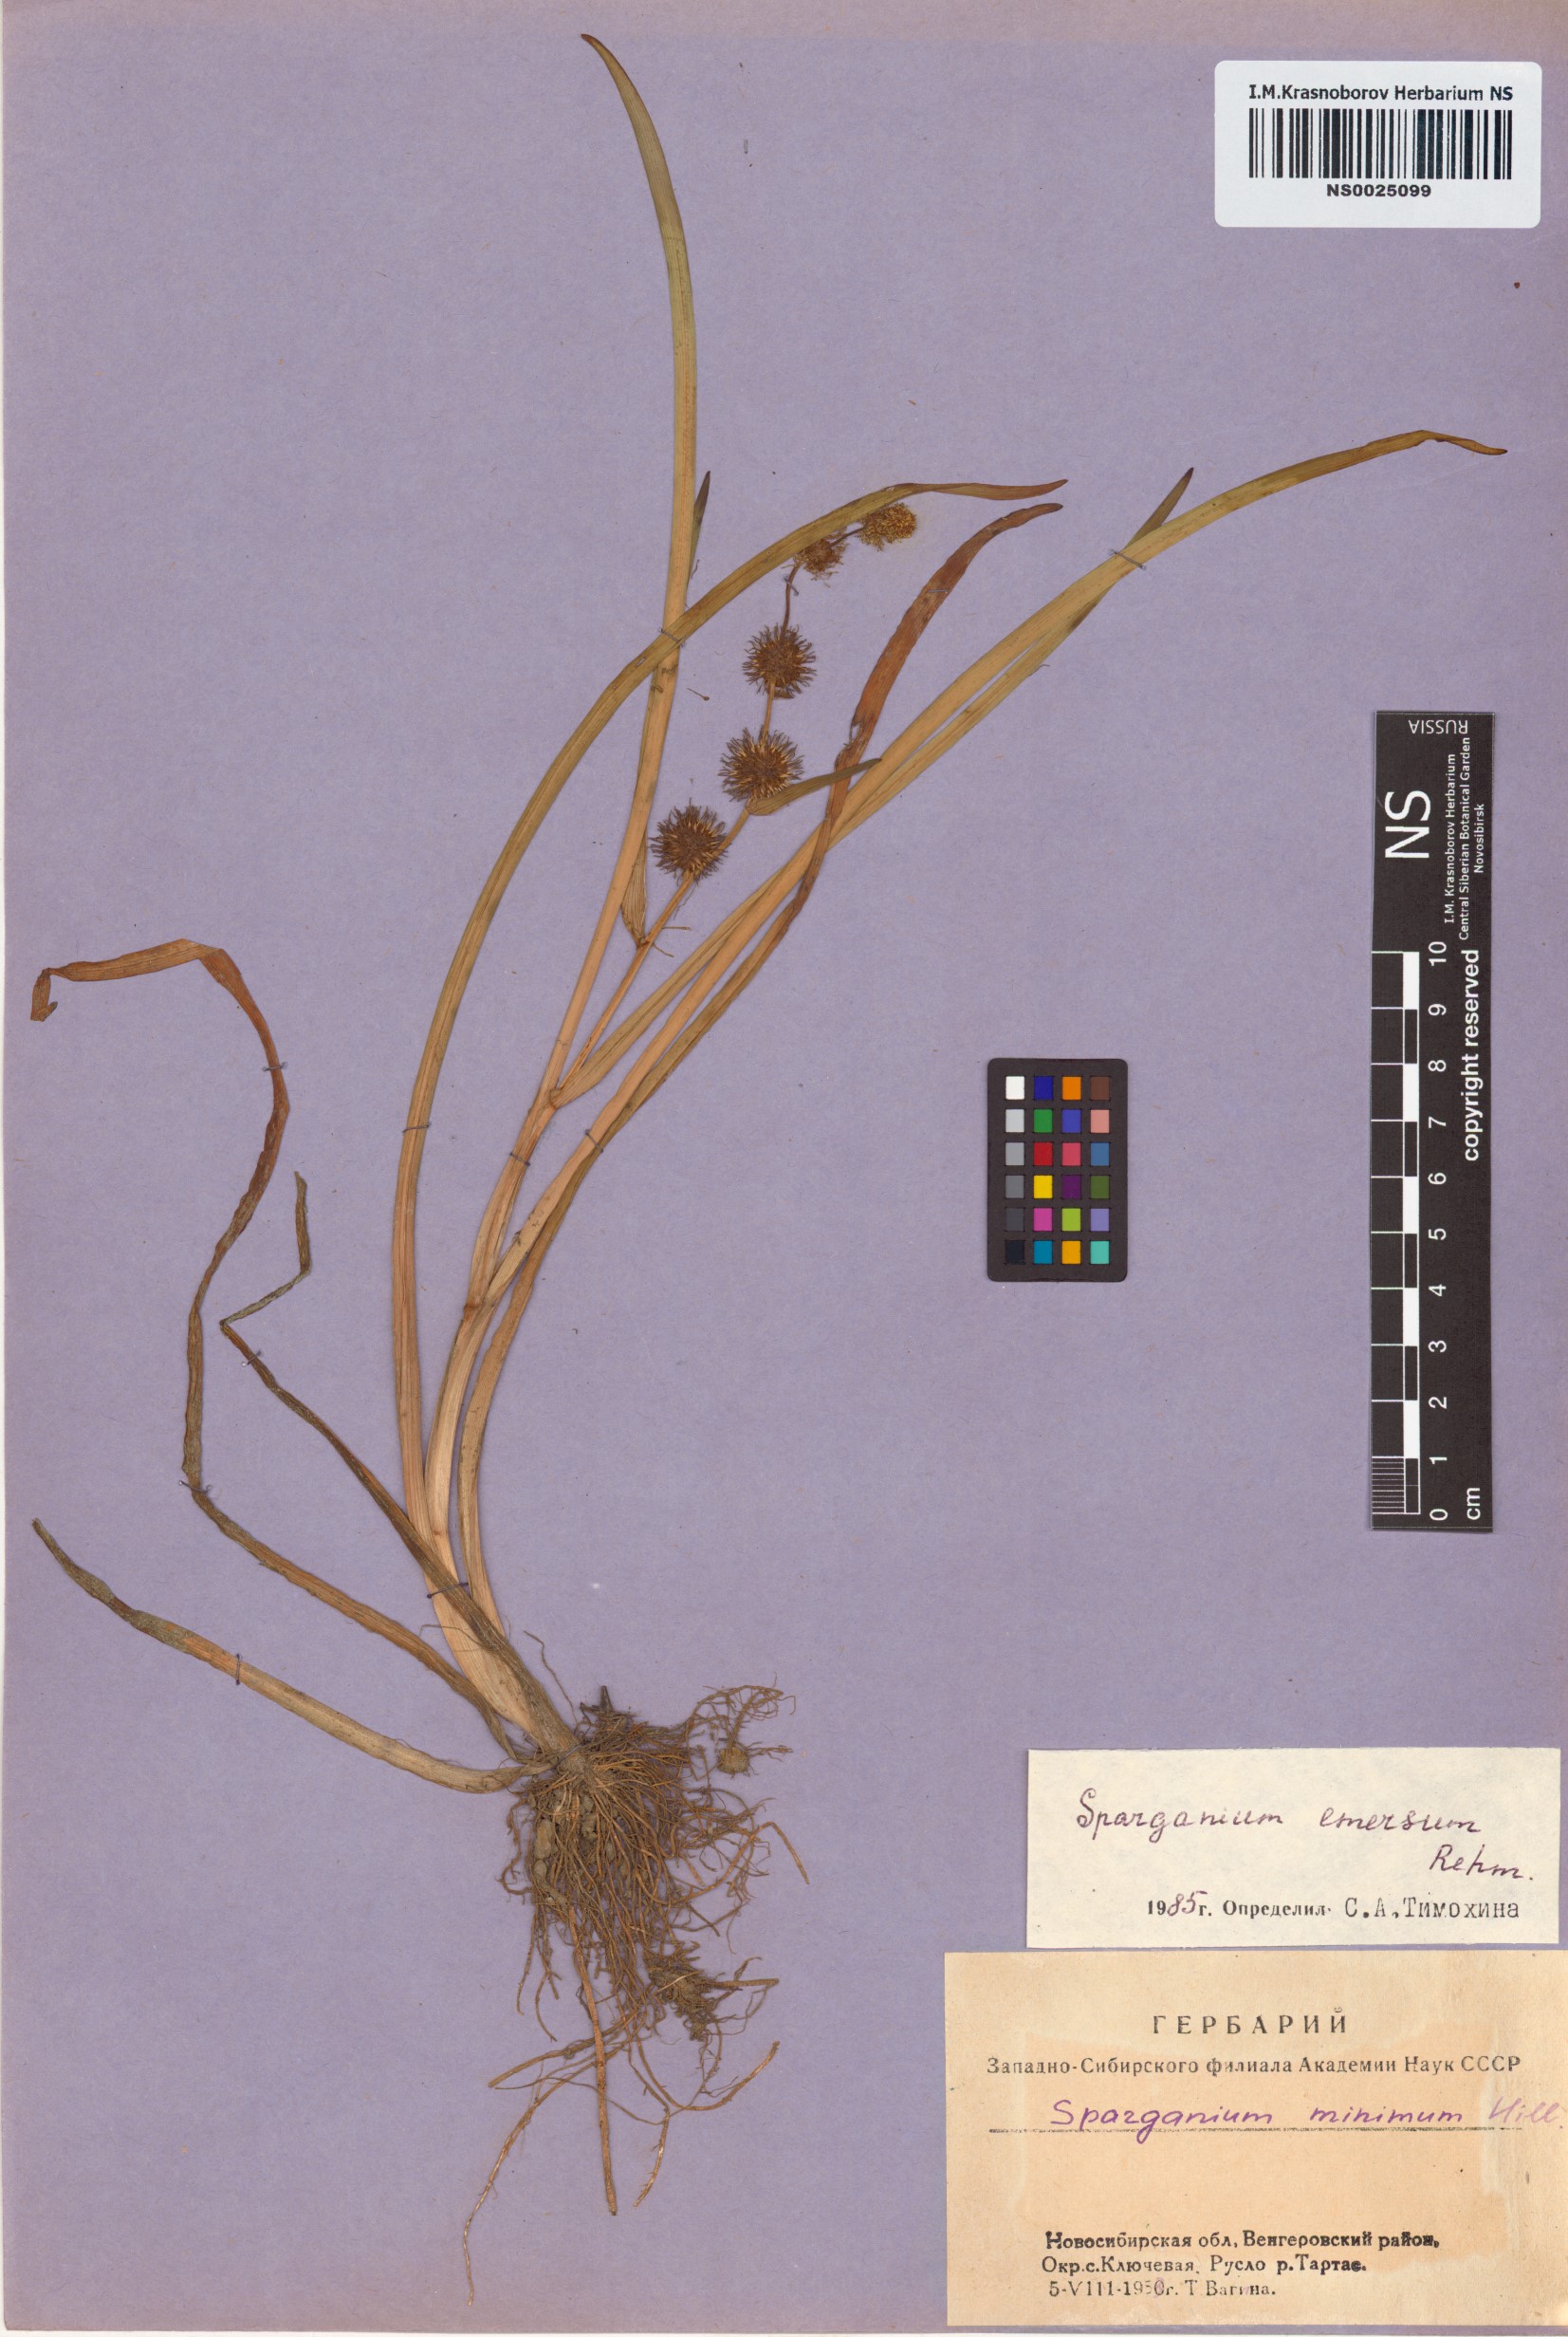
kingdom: Plantae
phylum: Tracheophyta
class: Liliopsida
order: Poales
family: Typhaceae
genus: Sparganium
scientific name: Sparganium emersum
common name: Unbranched bur-reed
